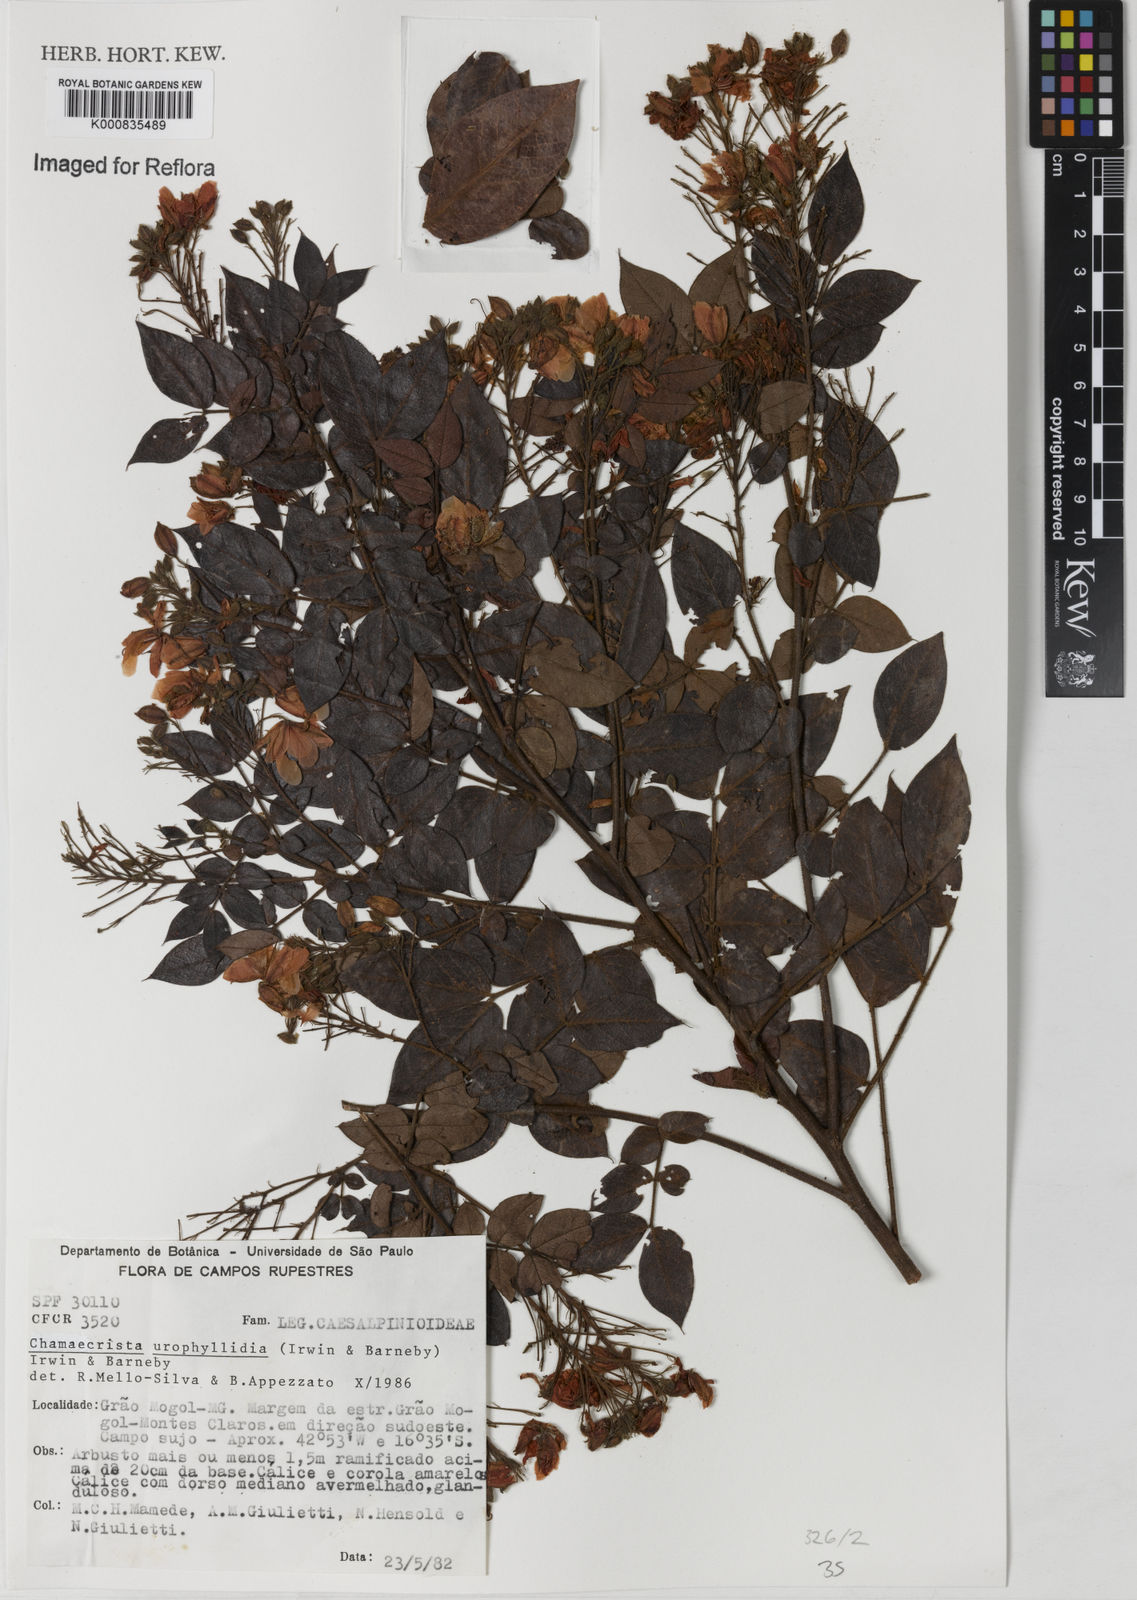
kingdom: Plantae
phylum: Tracheophyta
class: Magnoliopsida
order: Fabales
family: Fabaceae
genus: Chamaecrista
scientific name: Chamaecrista urophyllidia
